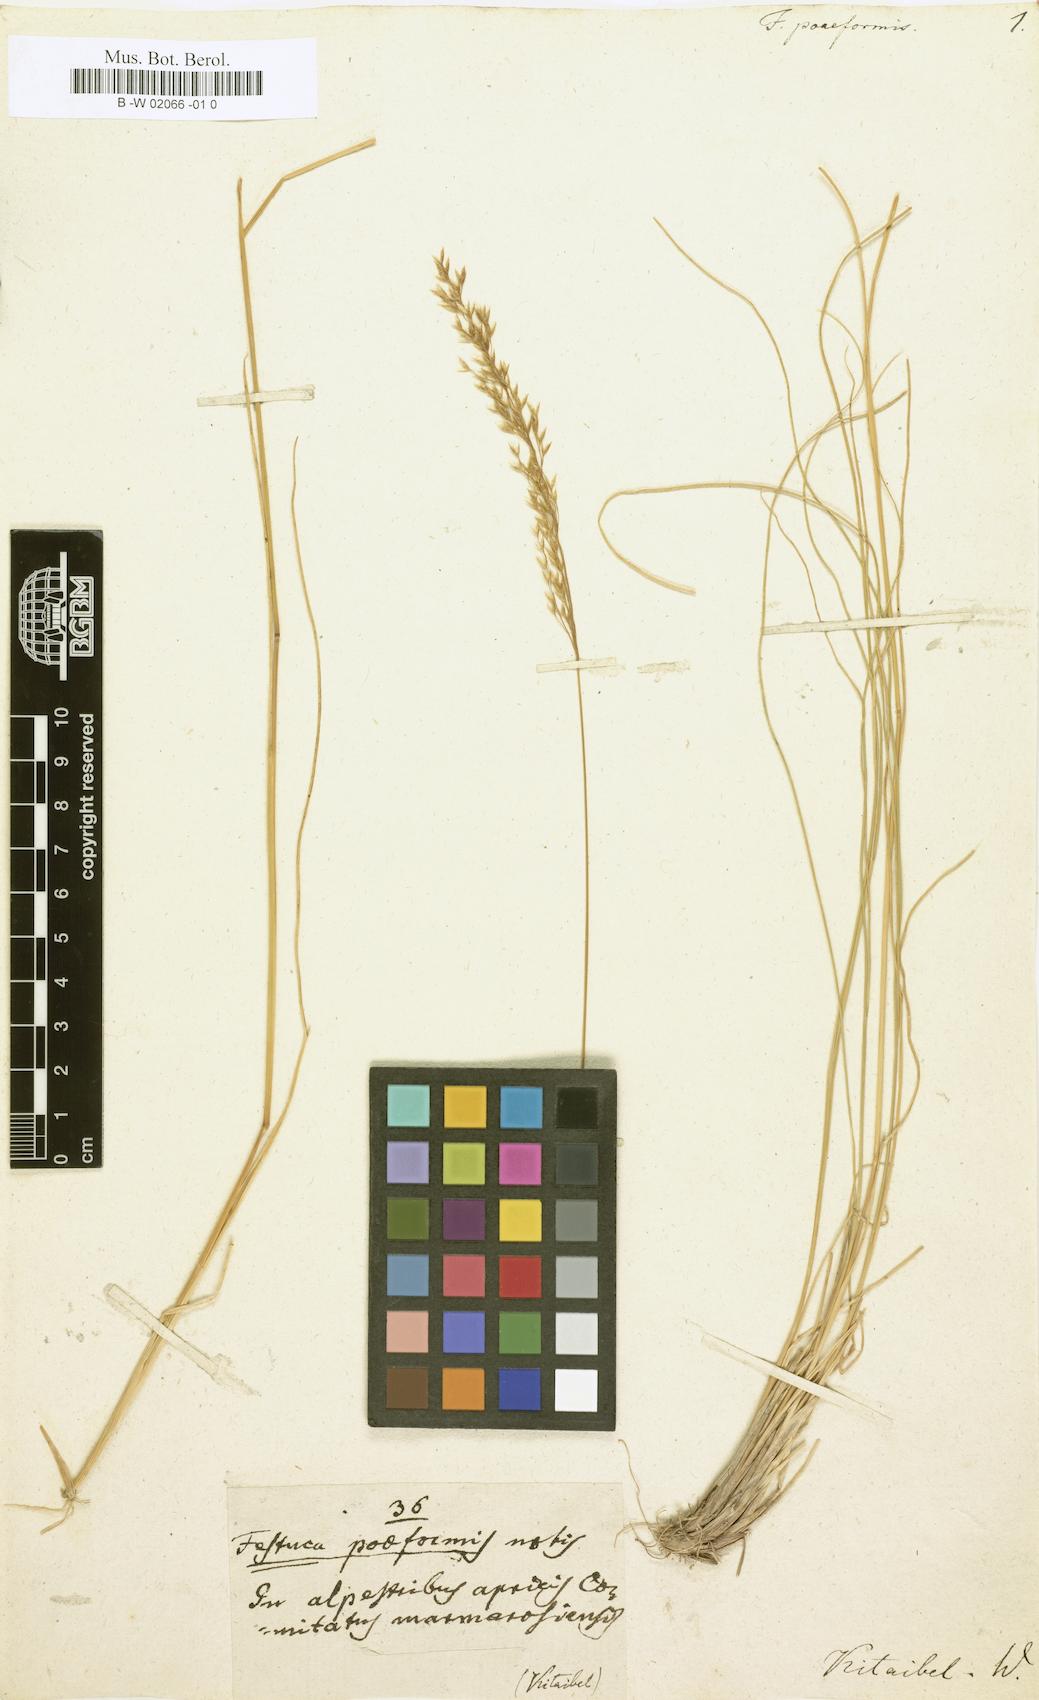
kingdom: Plantae
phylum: Tracheophyta
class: Liliopsida
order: Poales
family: Poaceae
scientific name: Poaceae
